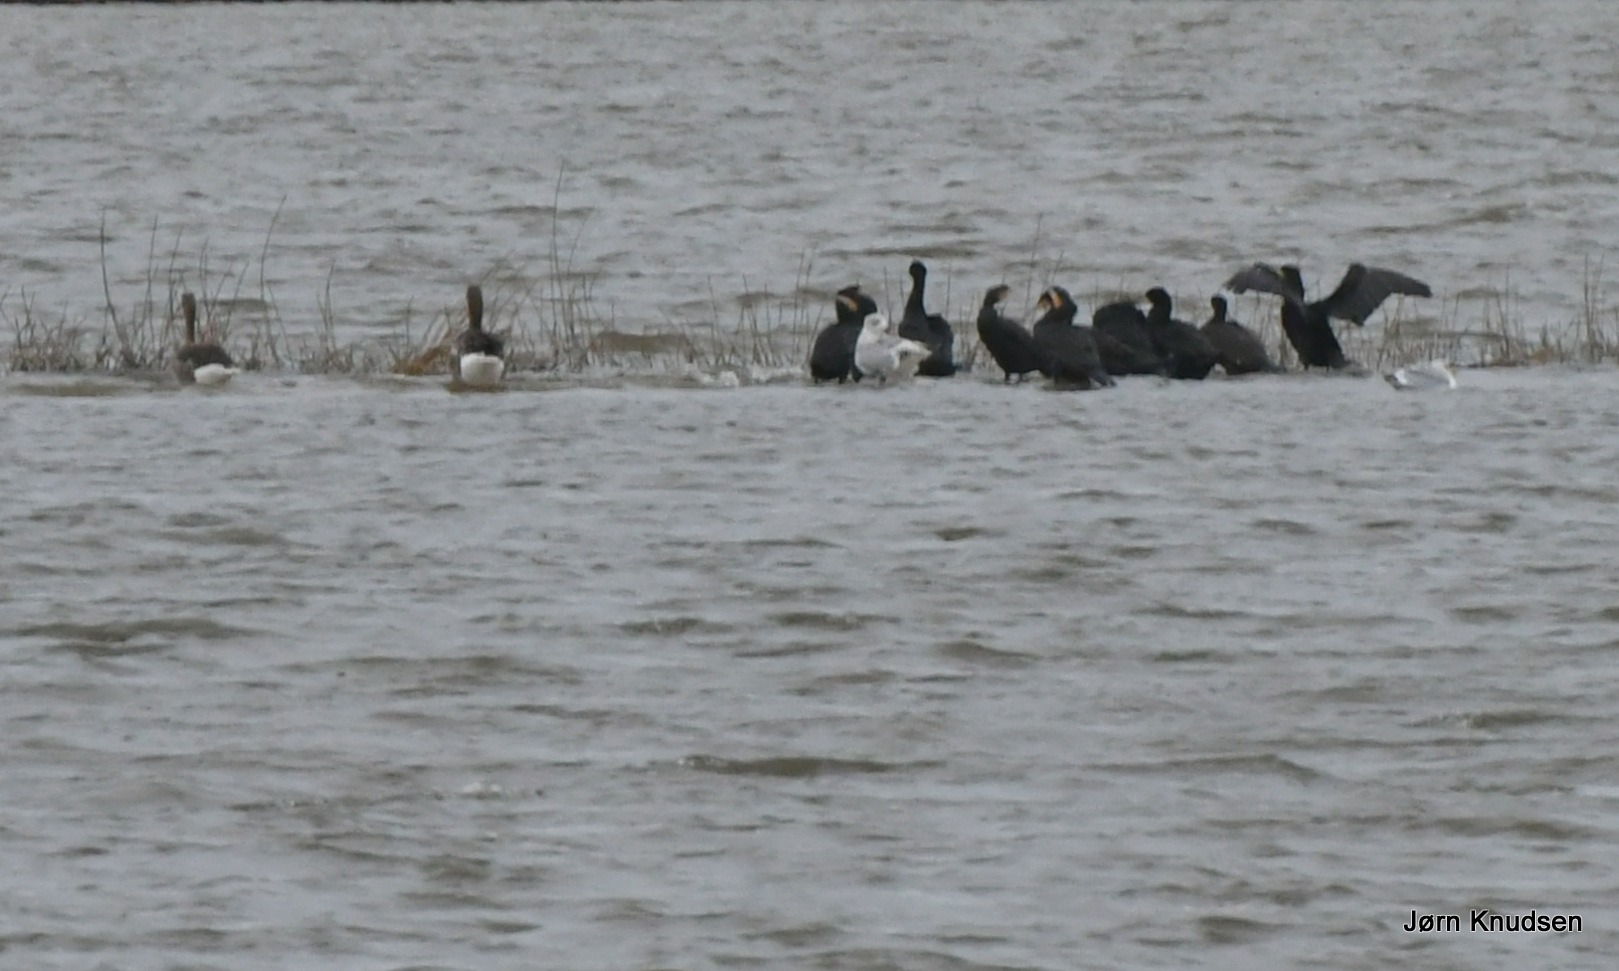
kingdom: Animalia
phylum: Chordata
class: Aves
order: Suliformes
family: Phalacrocoracidae
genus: Phalacrocorax
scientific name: Phalacrocorax carbo
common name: Skarv
